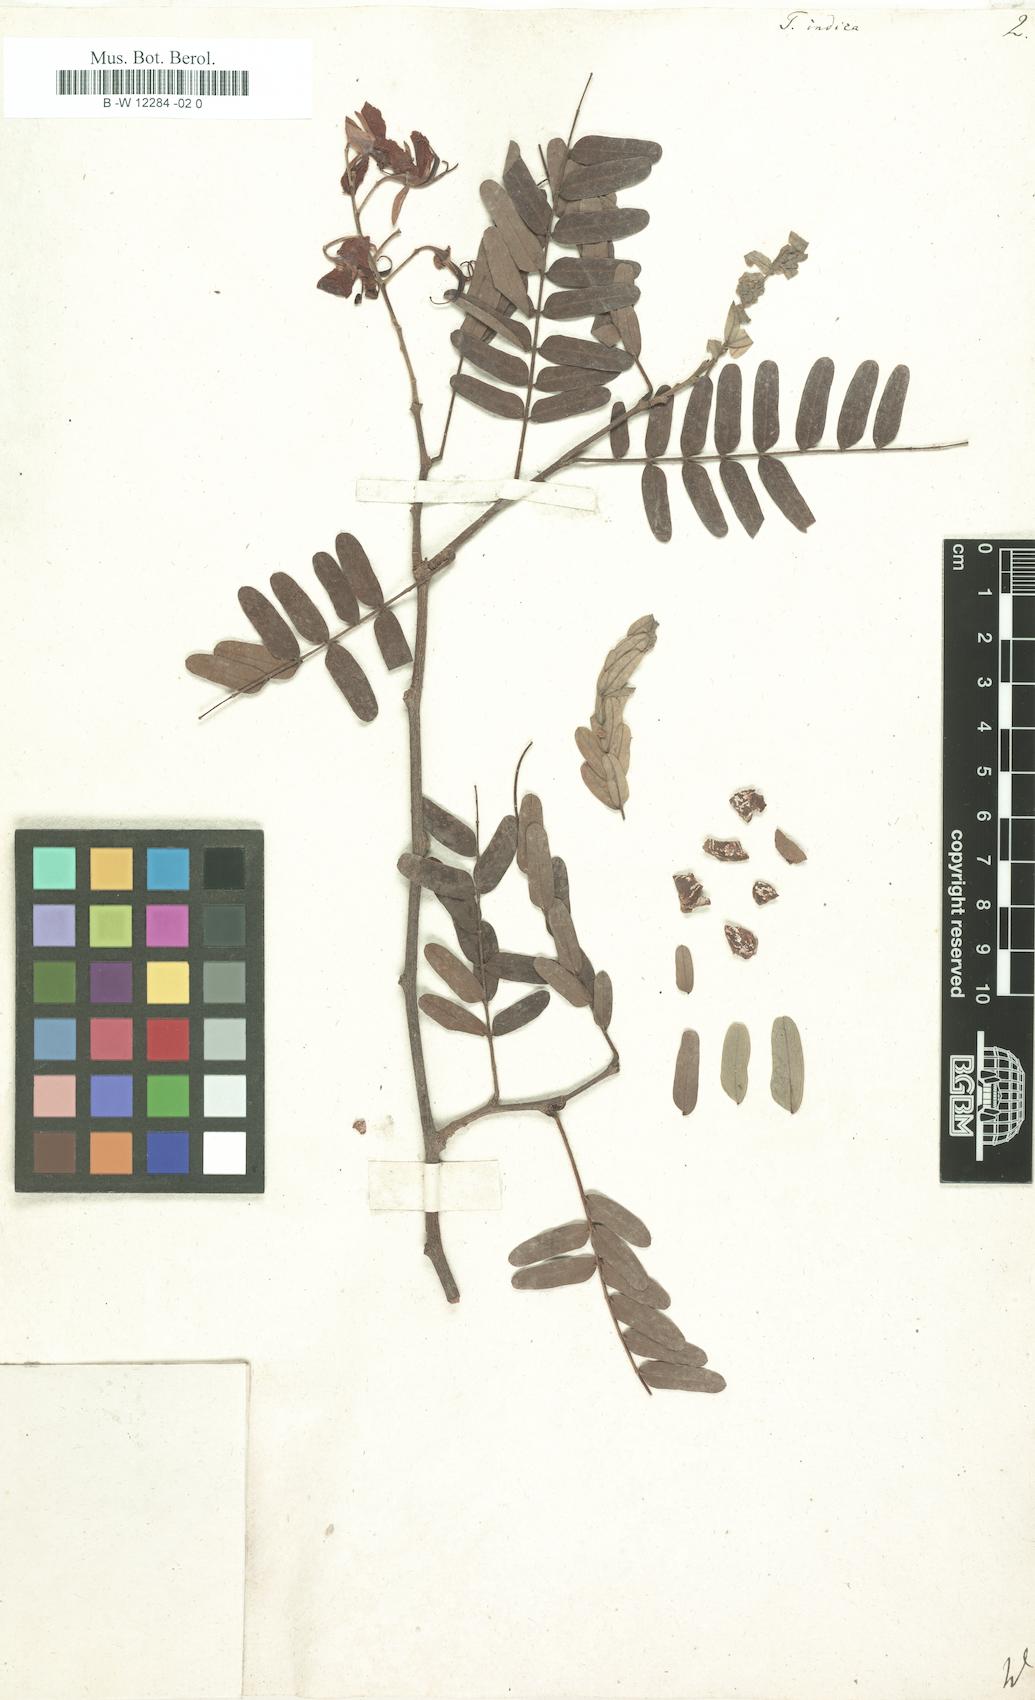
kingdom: Plantae
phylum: Tracheophyta
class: Magnoliopsida
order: Fabales
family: Fabaceae
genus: Tamarindus
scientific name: Tamarindus indica
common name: Tamarind
